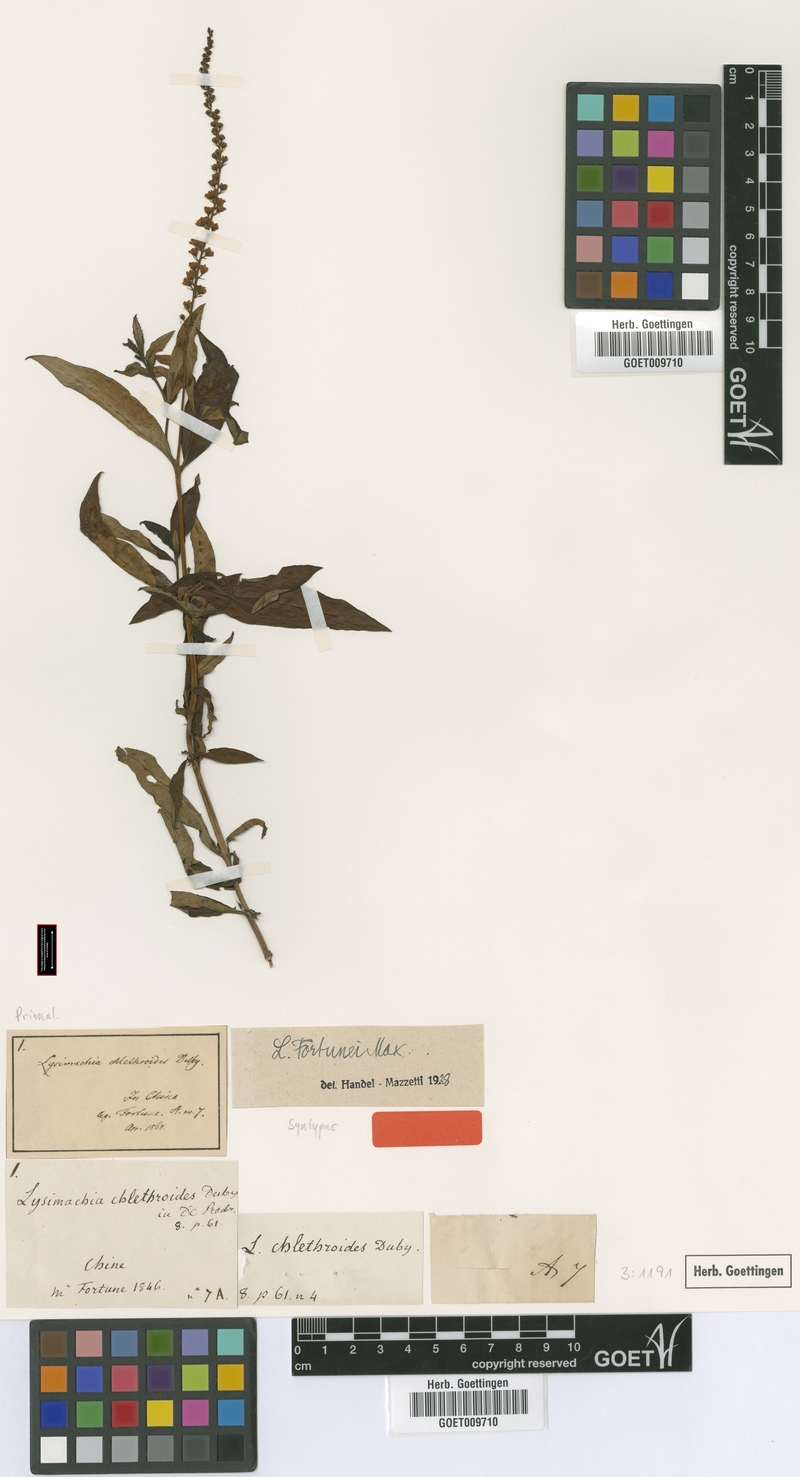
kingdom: Plantae
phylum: Tracheophyta
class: Magnoliopsida
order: Ericales
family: Primulaceae
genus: Lysimachia
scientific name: Lysimachia fortunei
